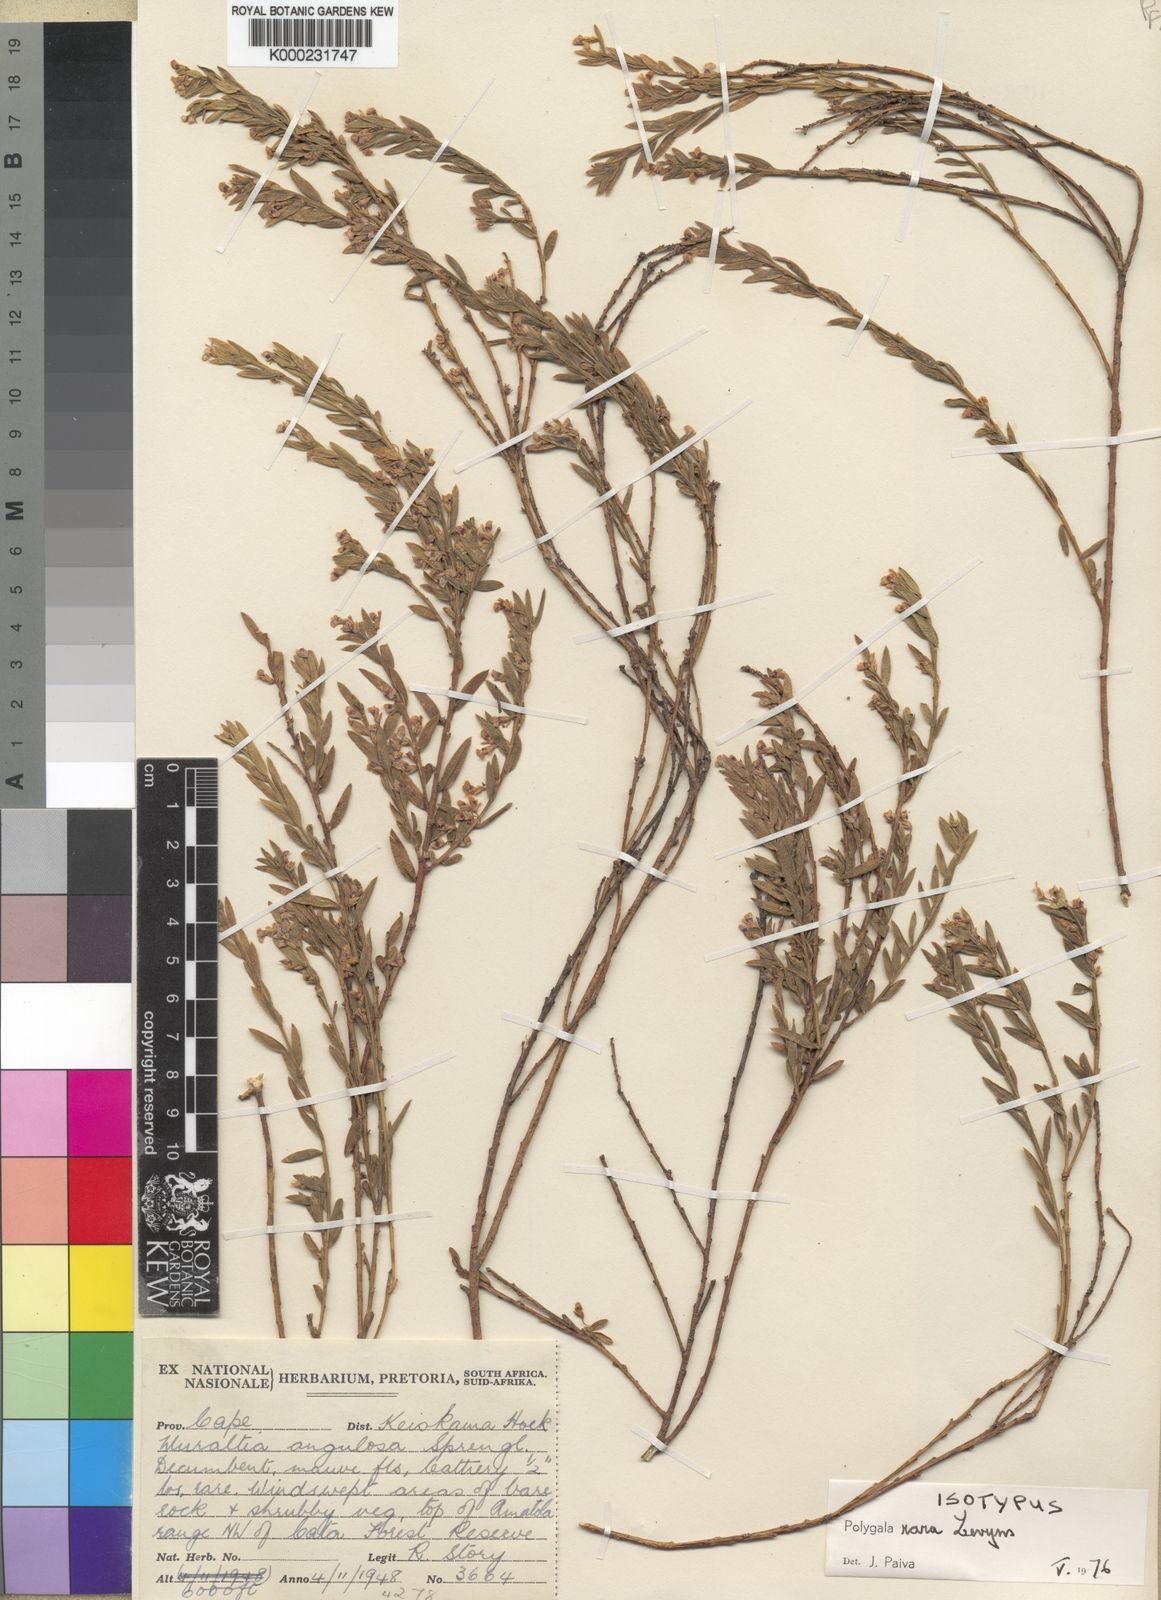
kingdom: Plantae
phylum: Tracheophyta
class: Magnoliopsida
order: Fabales
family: Polygalaceae
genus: Muraltia
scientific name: Muraltia rara
